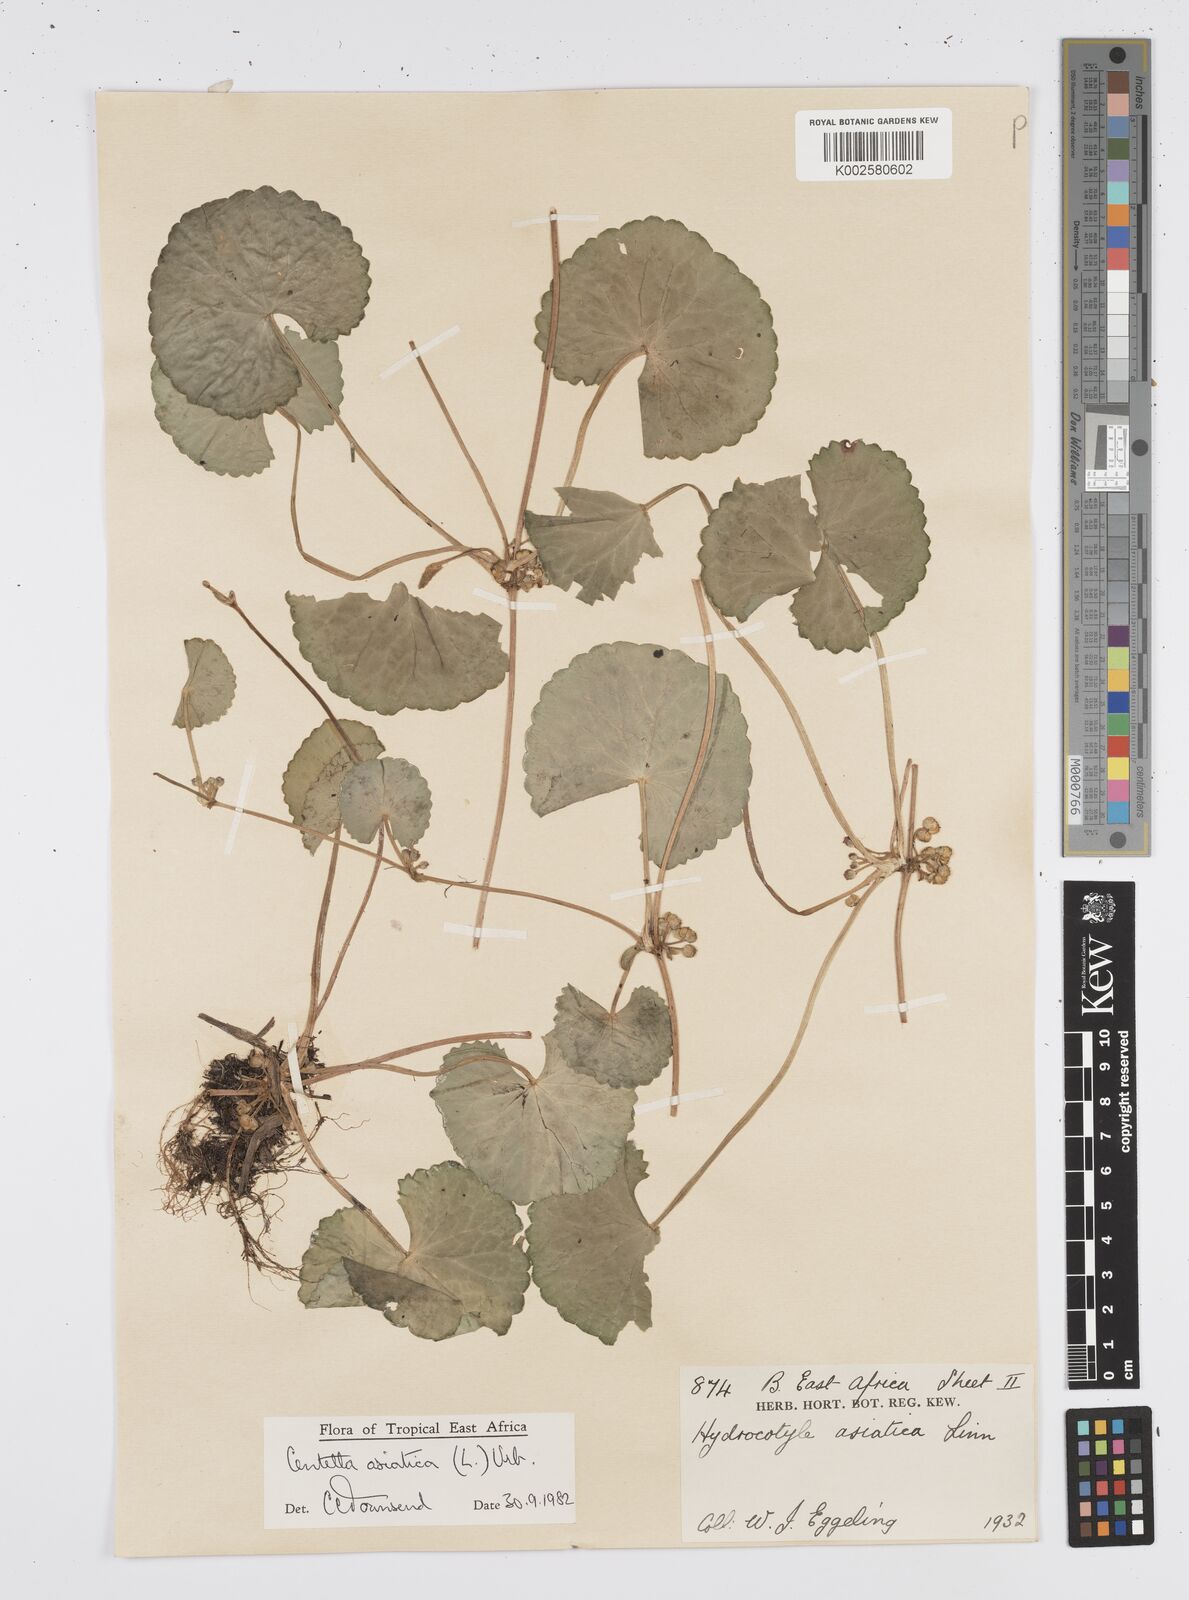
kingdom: Plantae
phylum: Tracheophyta
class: Magnoliopsida
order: Apiales
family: Apiaceae
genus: Centella
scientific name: Centella asiatica
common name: Spadeleaf
